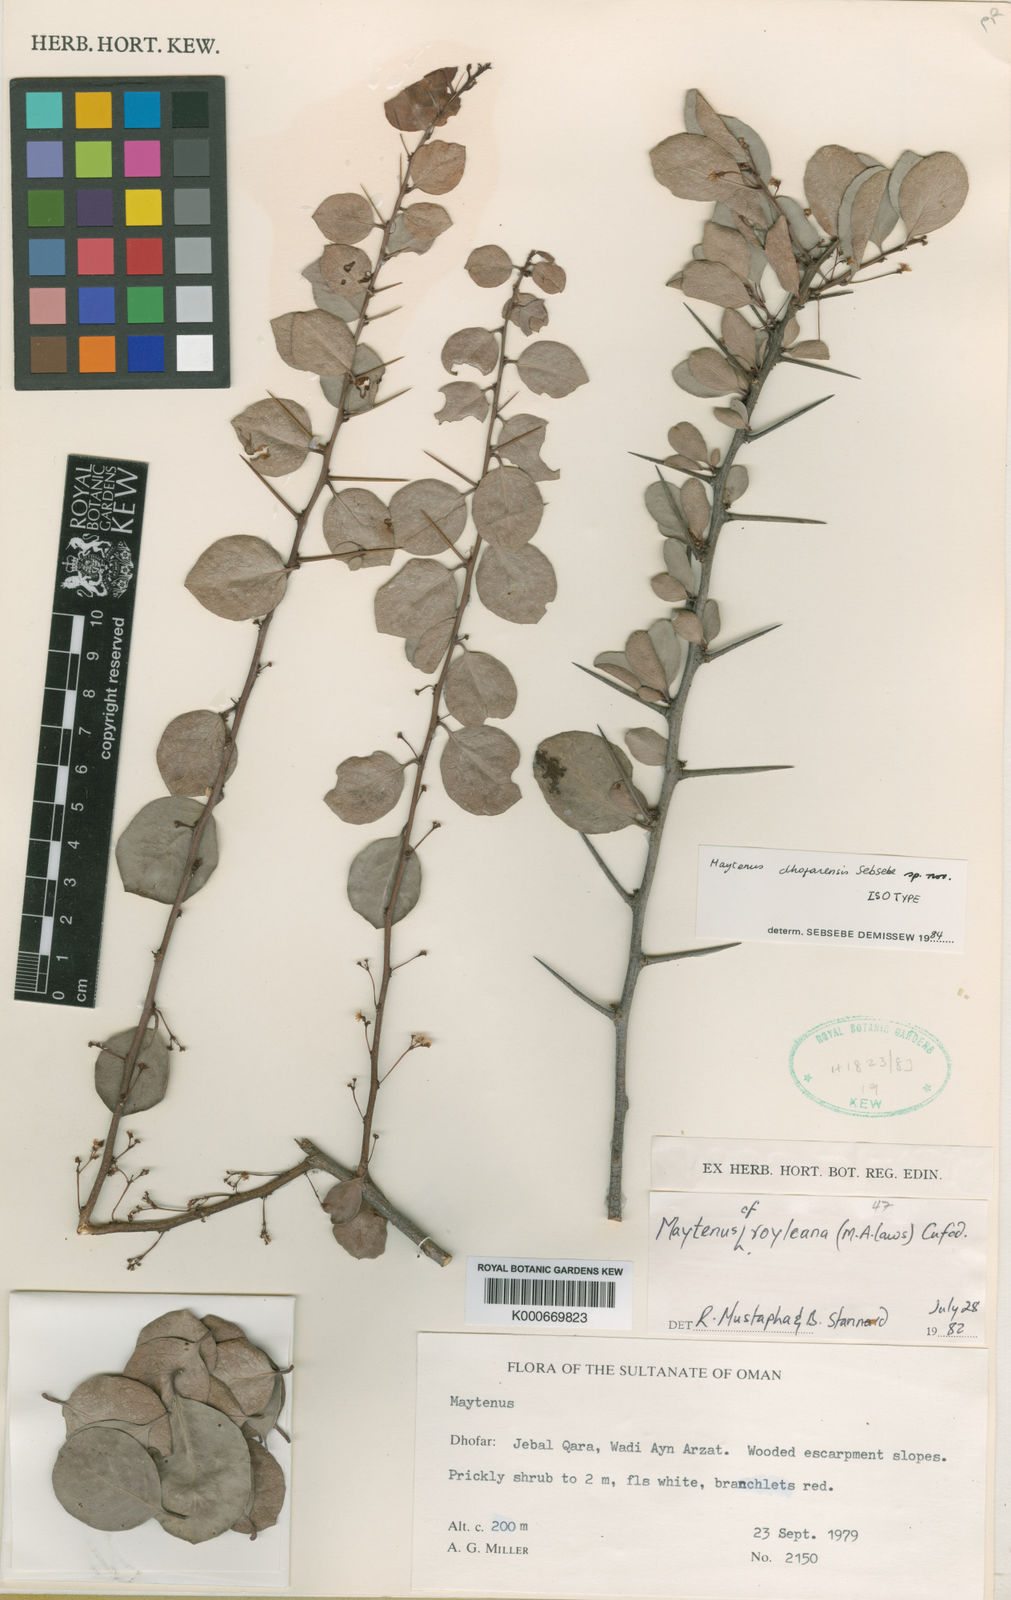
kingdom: Plantae
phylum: Tracheophyta
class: Magnoliopsida
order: Celastrales
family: Celastraceae
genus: Gymnosporia
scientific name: Gymnosporia dhofarensis
